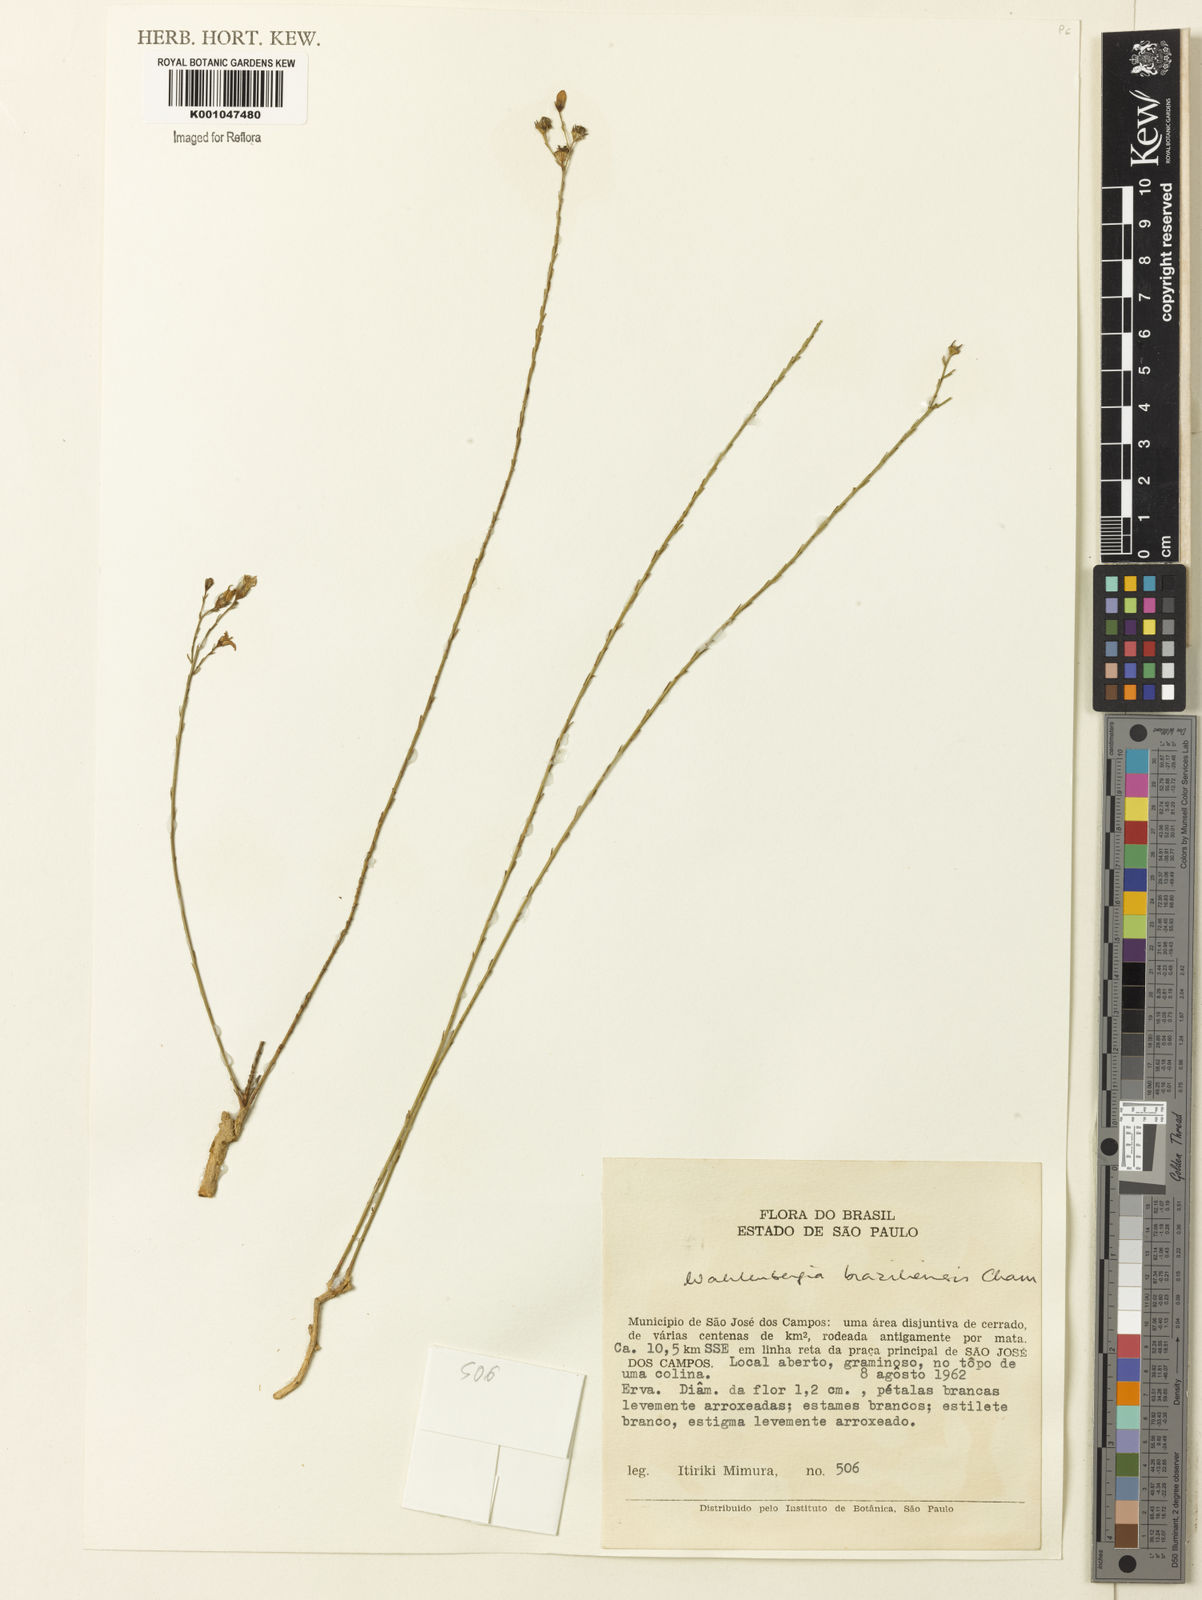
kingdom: Plantae
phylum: Tracheophyta
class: Magnoliopsida
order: Asterales
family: Campanulaceae
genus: Wahlenbergia
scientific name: Wahlenbergia brasiliensis
